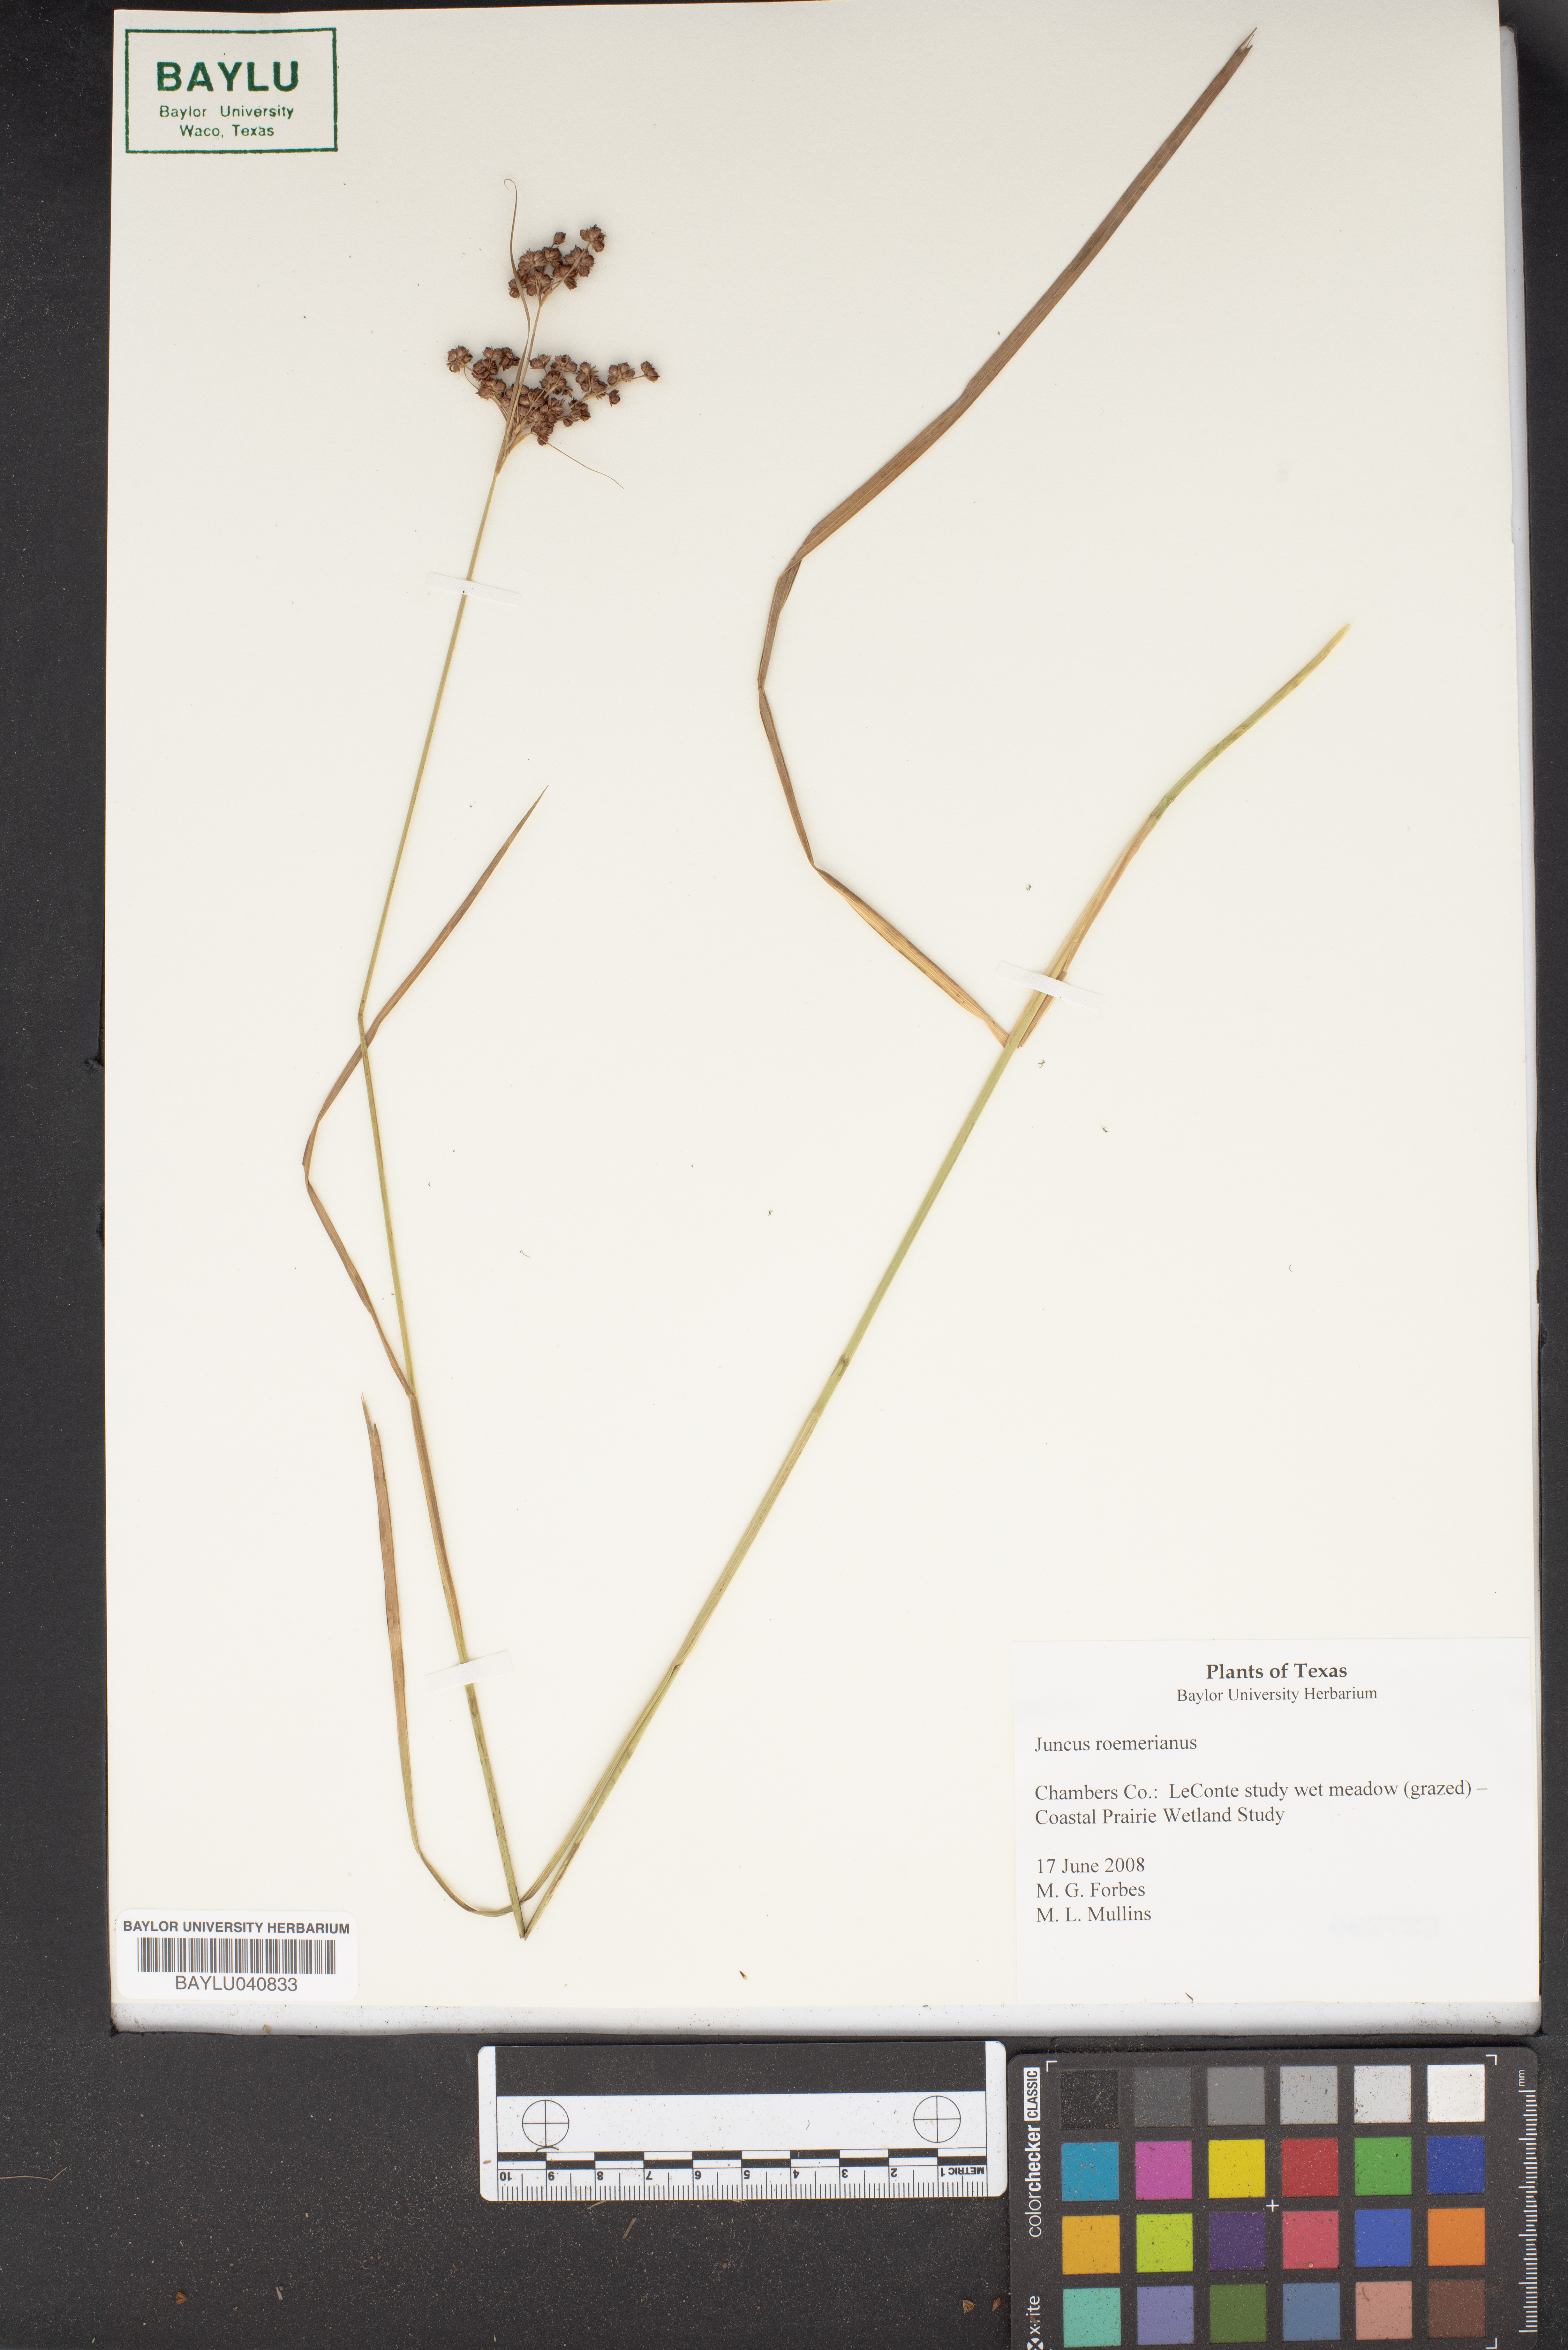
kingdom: Plantae
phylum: Tracheophyta
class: Liliopsida
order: Poales
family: Juncaceae
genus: Juncus
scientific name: Juncus roemerianus
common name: Roemer's rush
